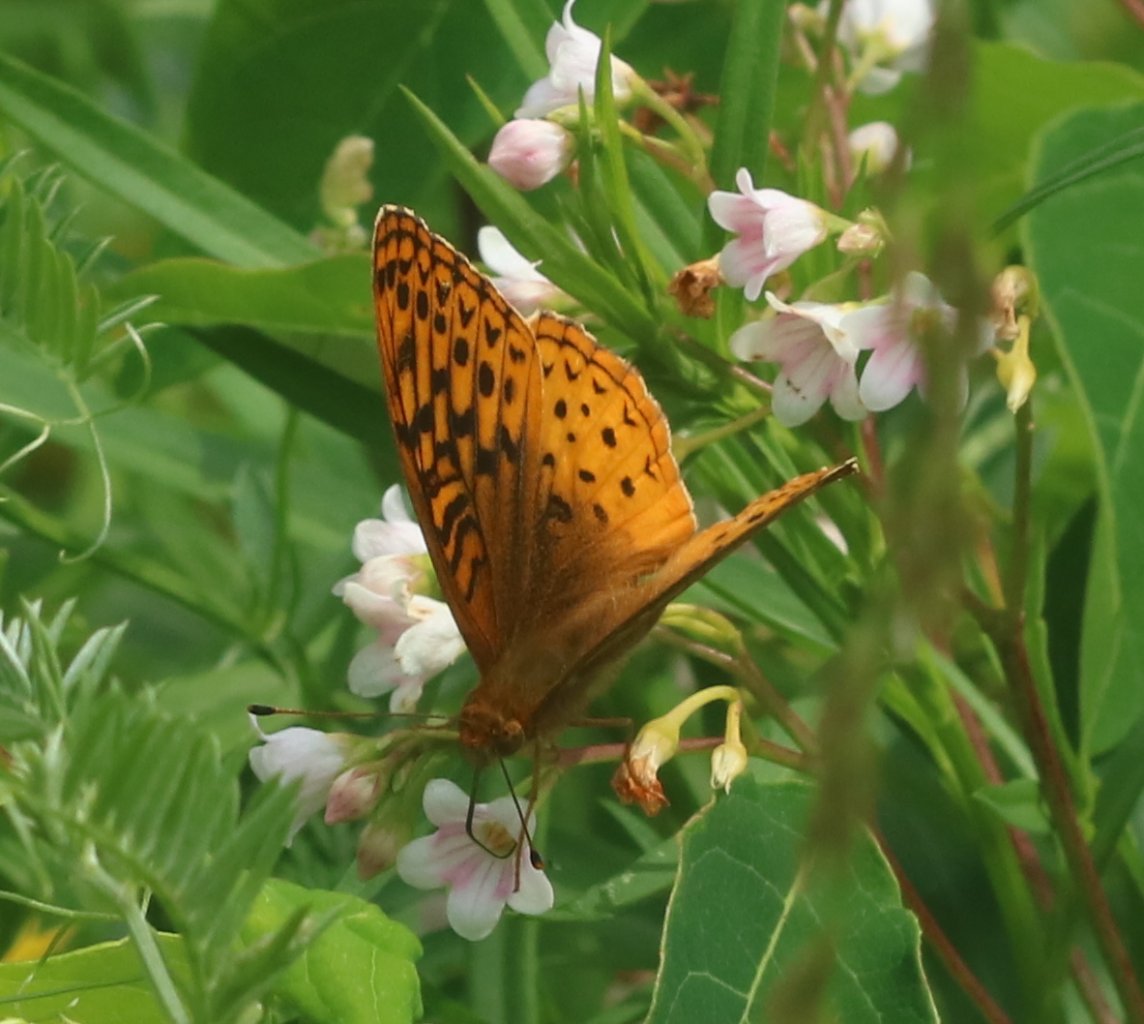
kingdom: Animalia
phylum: Arthropoda
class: Insecta
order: Lepidoptera
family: Nymphalidae
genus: Speyeria
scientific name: Speyeria cybele
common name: Great Spangled Fritillary
